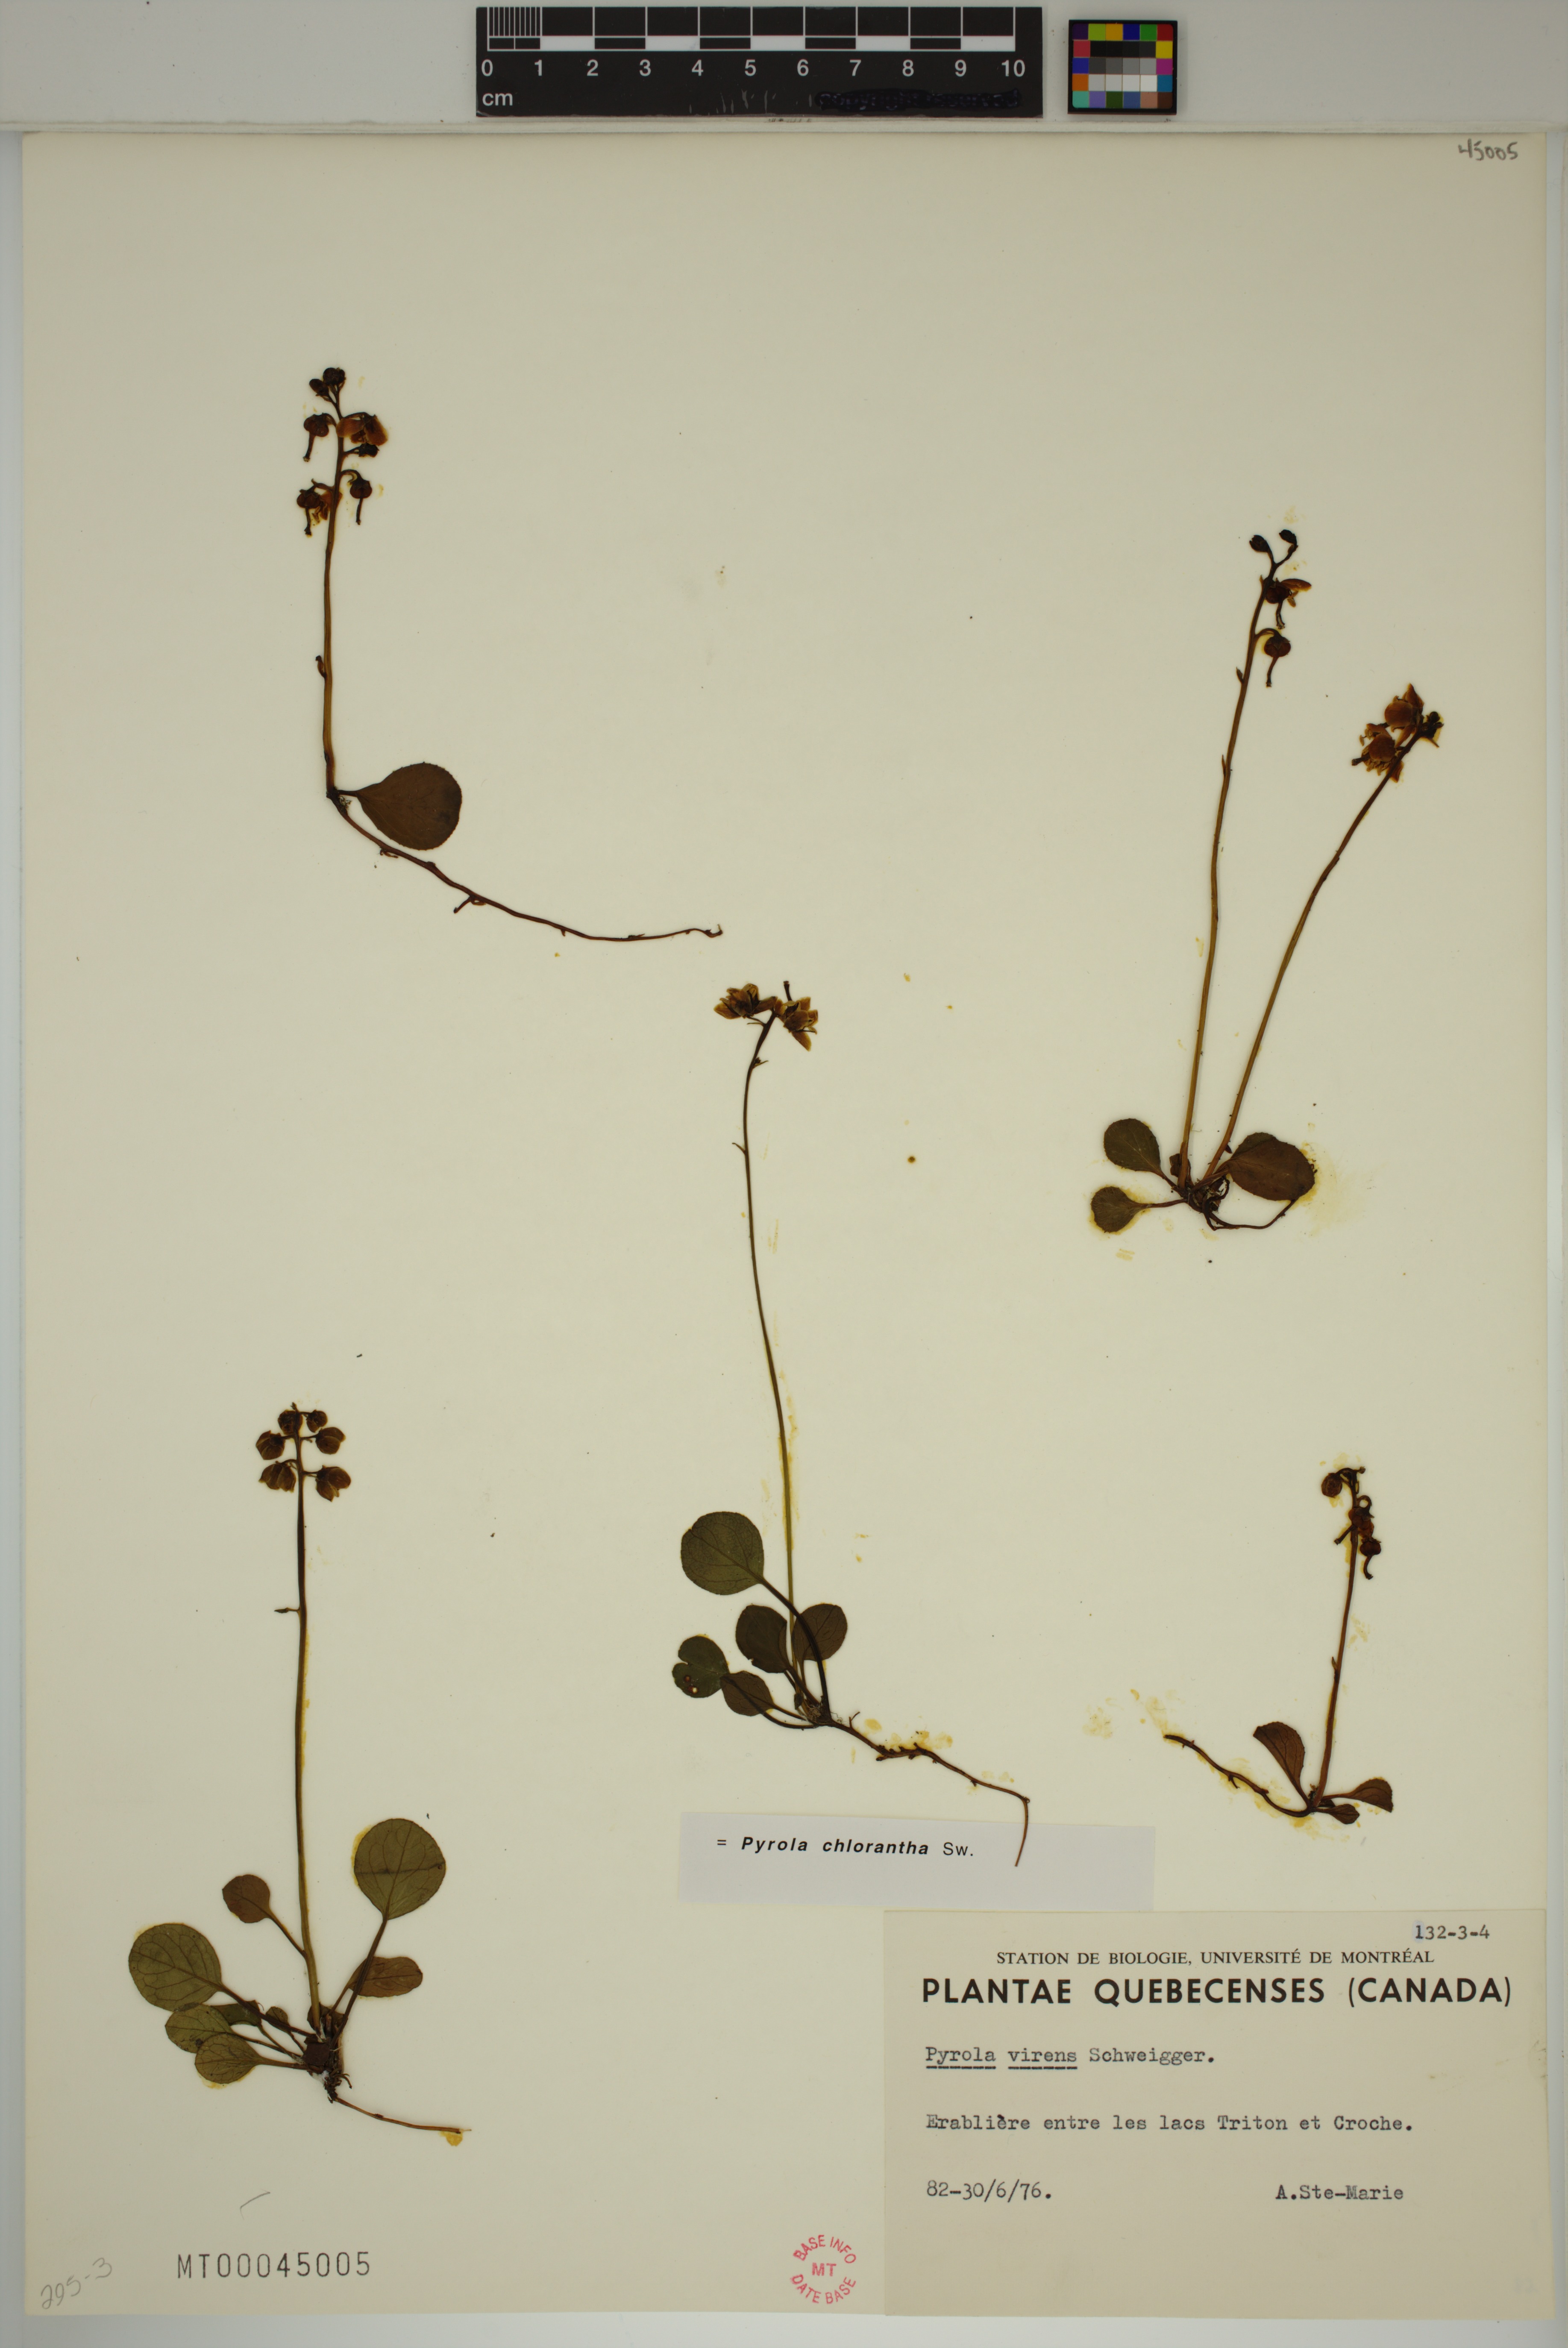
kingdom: Plantae
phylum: Tracheophyta
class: Magnoliopsida
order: Ericales
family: Ericaceae
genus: Pyrola
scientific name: Pyrola chlorantha
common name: Green wintergreen
